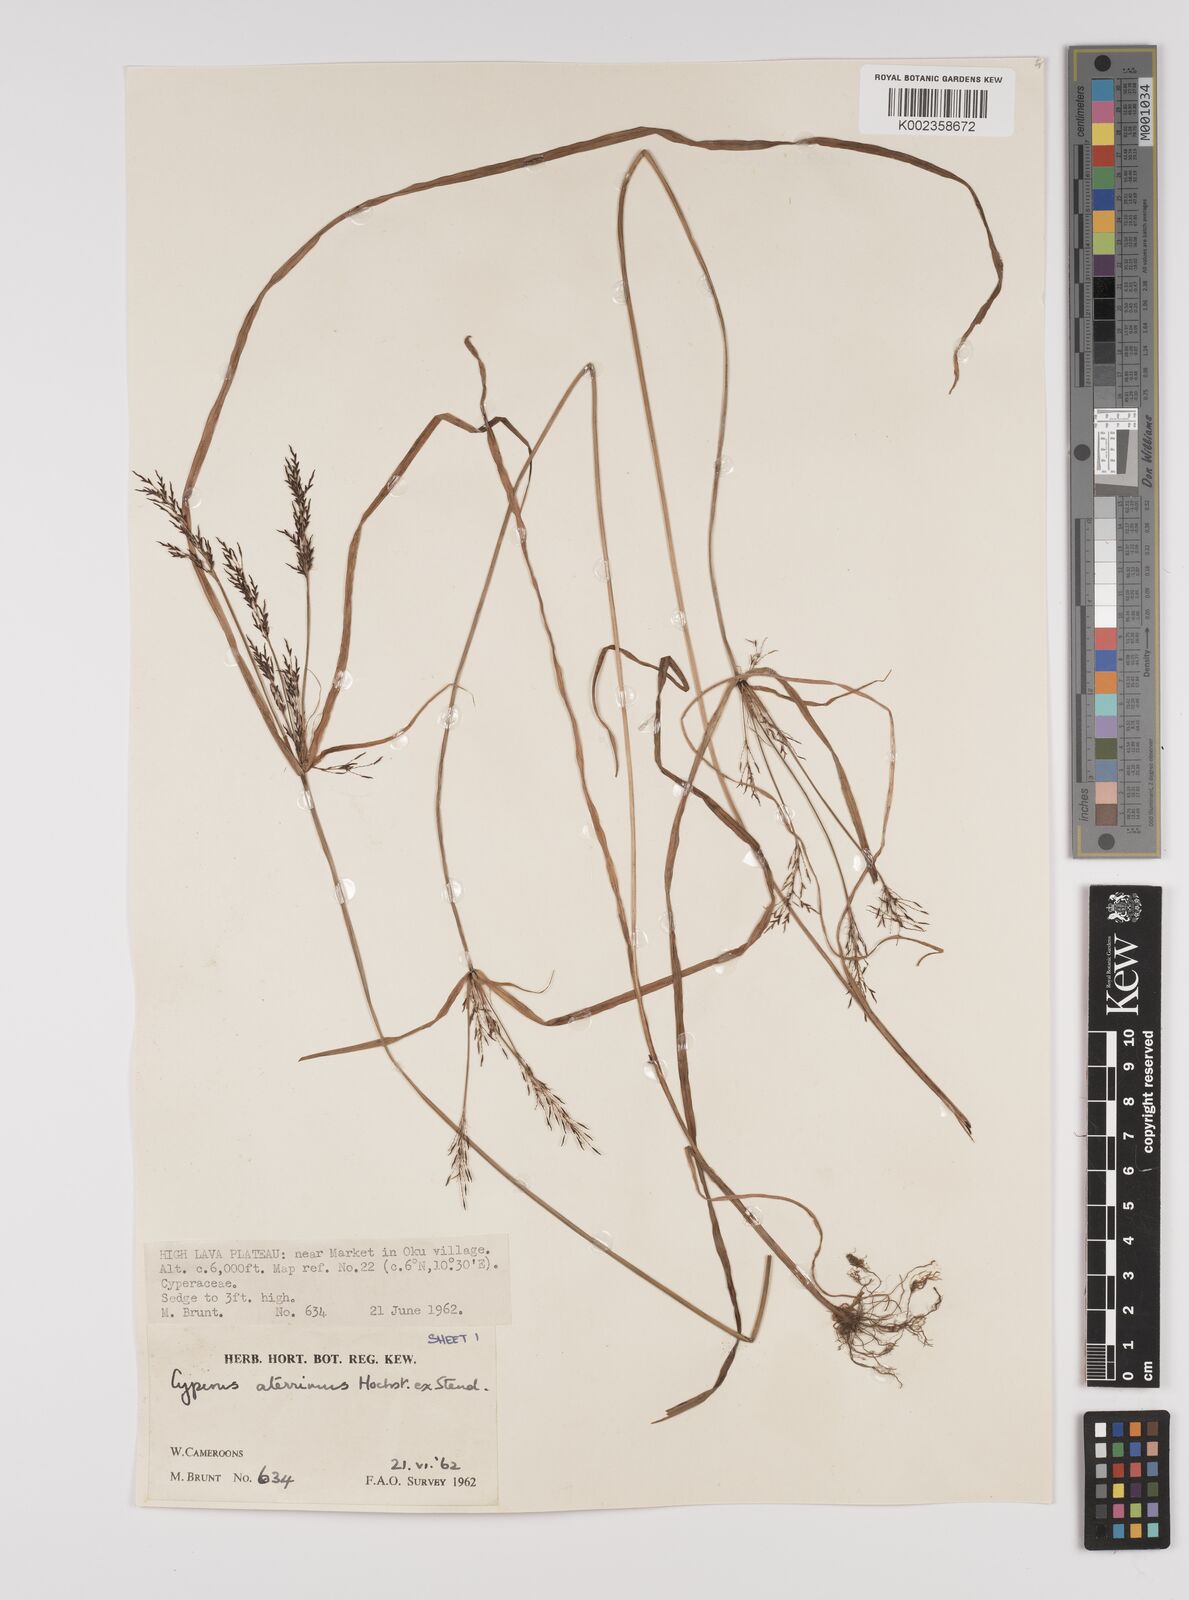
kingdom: Plantae
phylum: Tracheophyta
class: Liliopsida
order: Poales
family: Cyperaceae
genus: Cyperus
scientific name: Cyperus aterrimus
